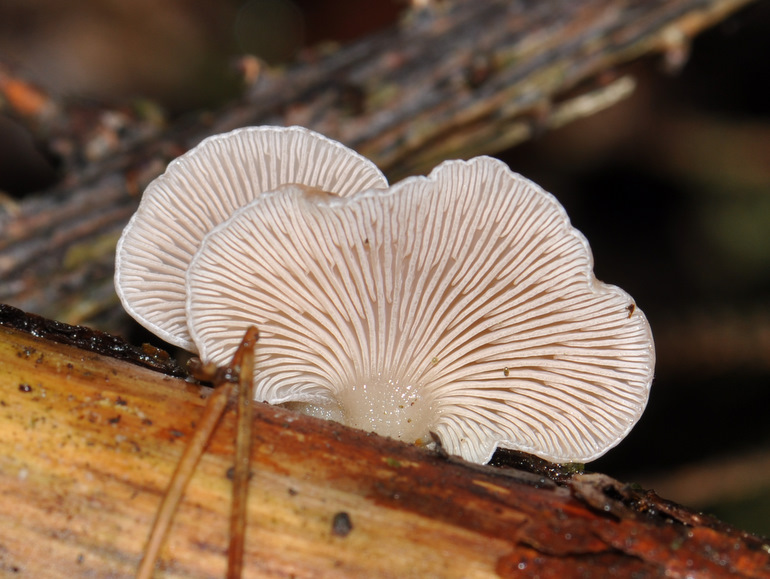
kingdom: Fungi
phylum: Basidiomycota
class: Agaricomycetes
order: Agaricales
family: Mycenaceae
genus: Panellus
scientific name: Panellus mitis
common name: mild epaulethat
